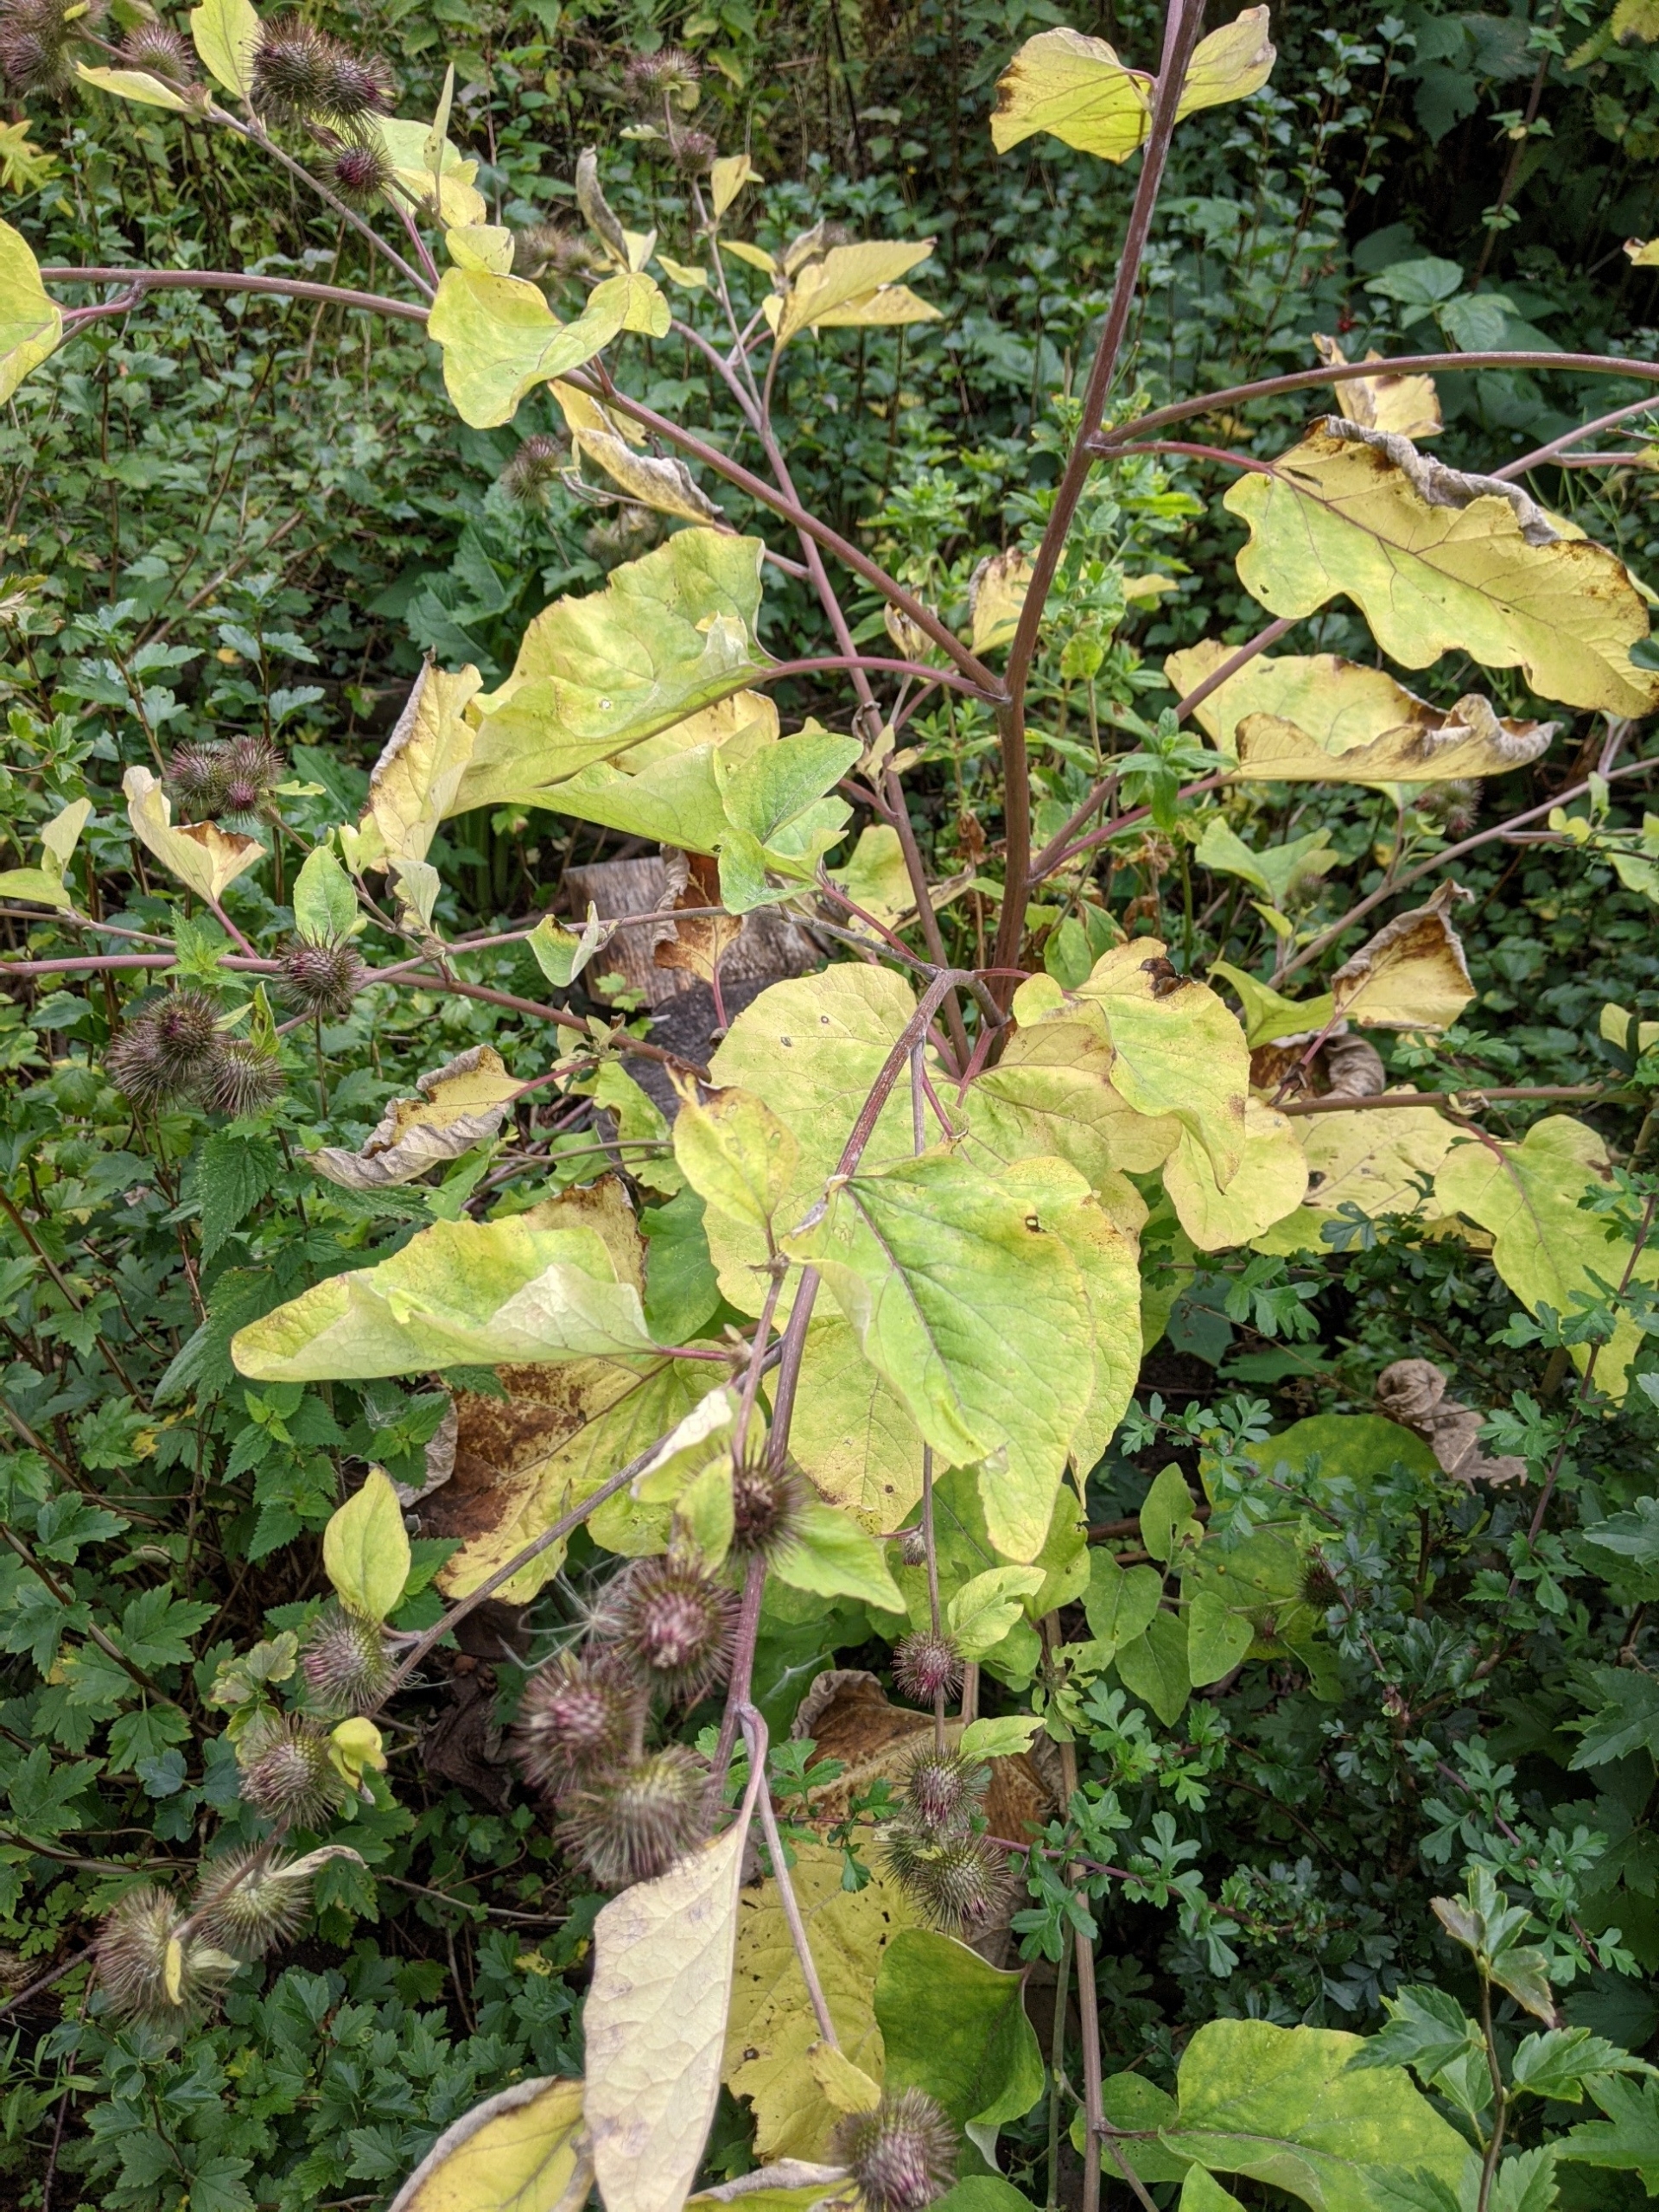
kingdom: Plantae
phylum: Tracheophyta
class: Magnoliopsida
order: Asterales
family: Asteraceae
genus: Arctium
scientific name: Arctium nemorosum
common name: Skov-burre
